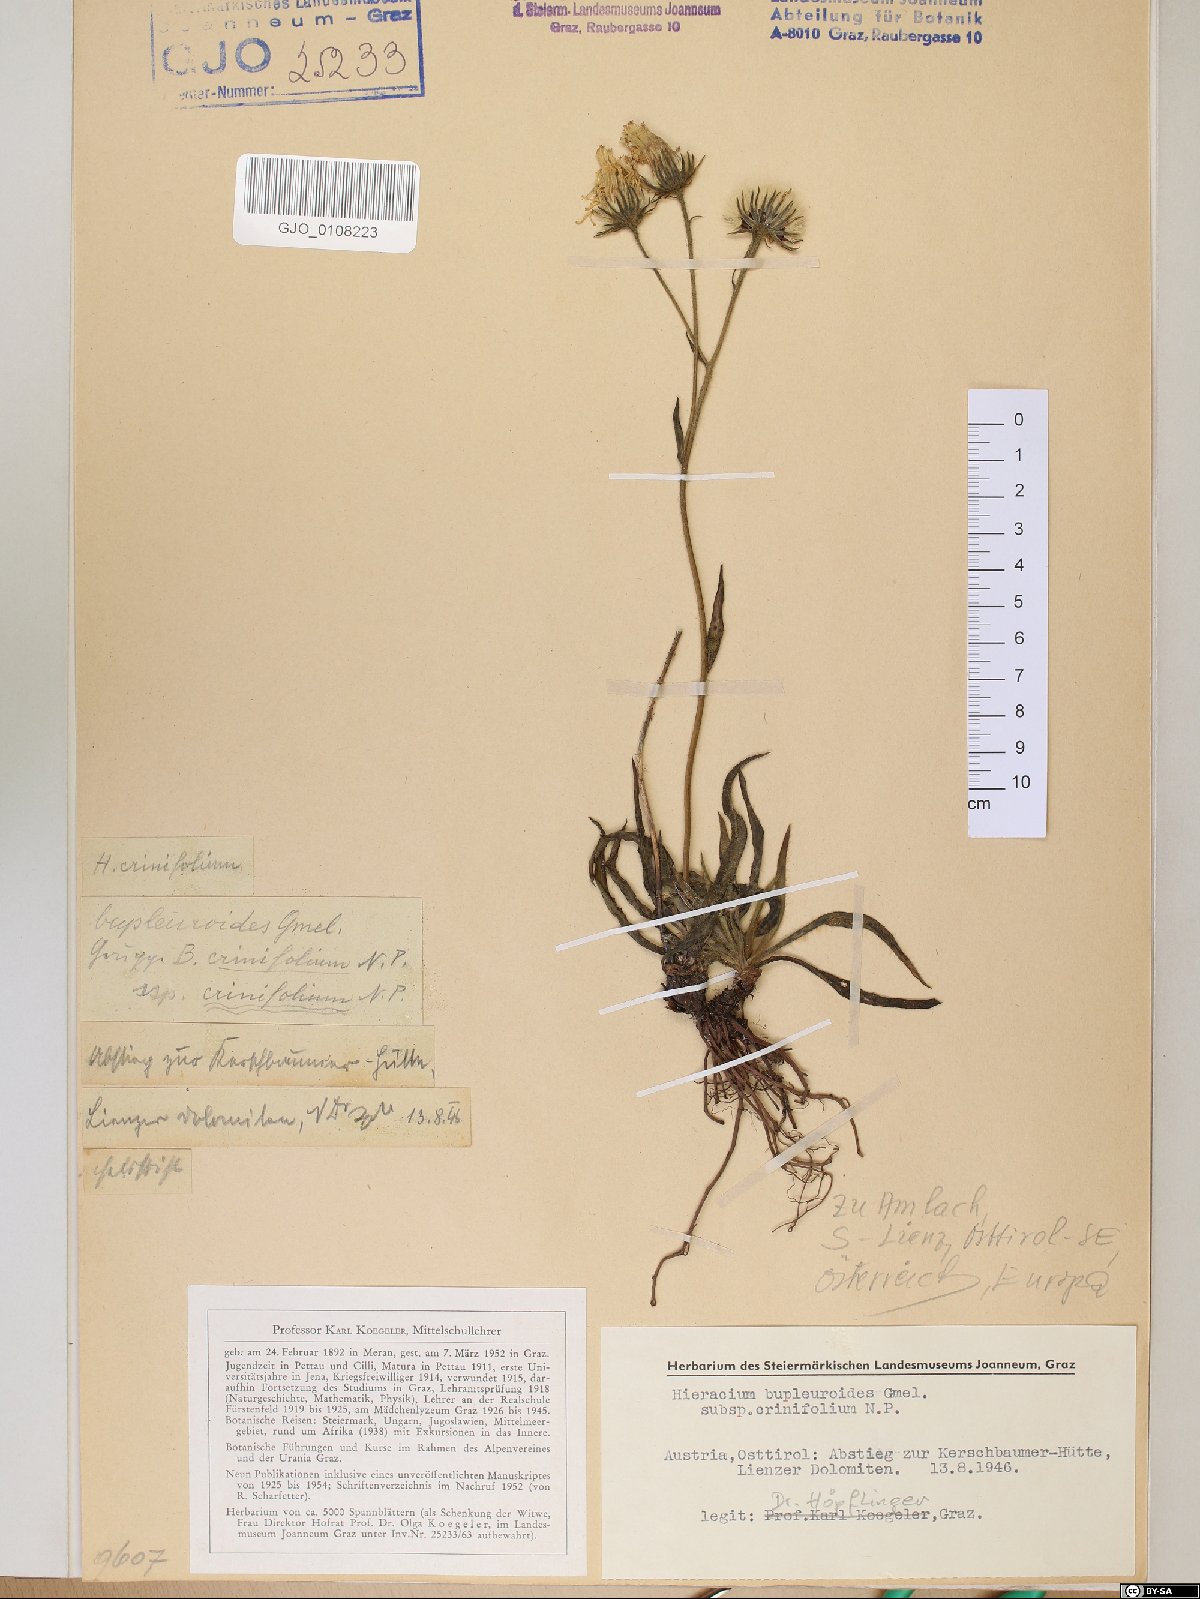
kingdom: Plantae
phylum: Tracheophyta
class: Magnoliopsida
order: Asterales
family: Asteraceae
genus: Hieracium
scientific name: Hieracium crinifolium
